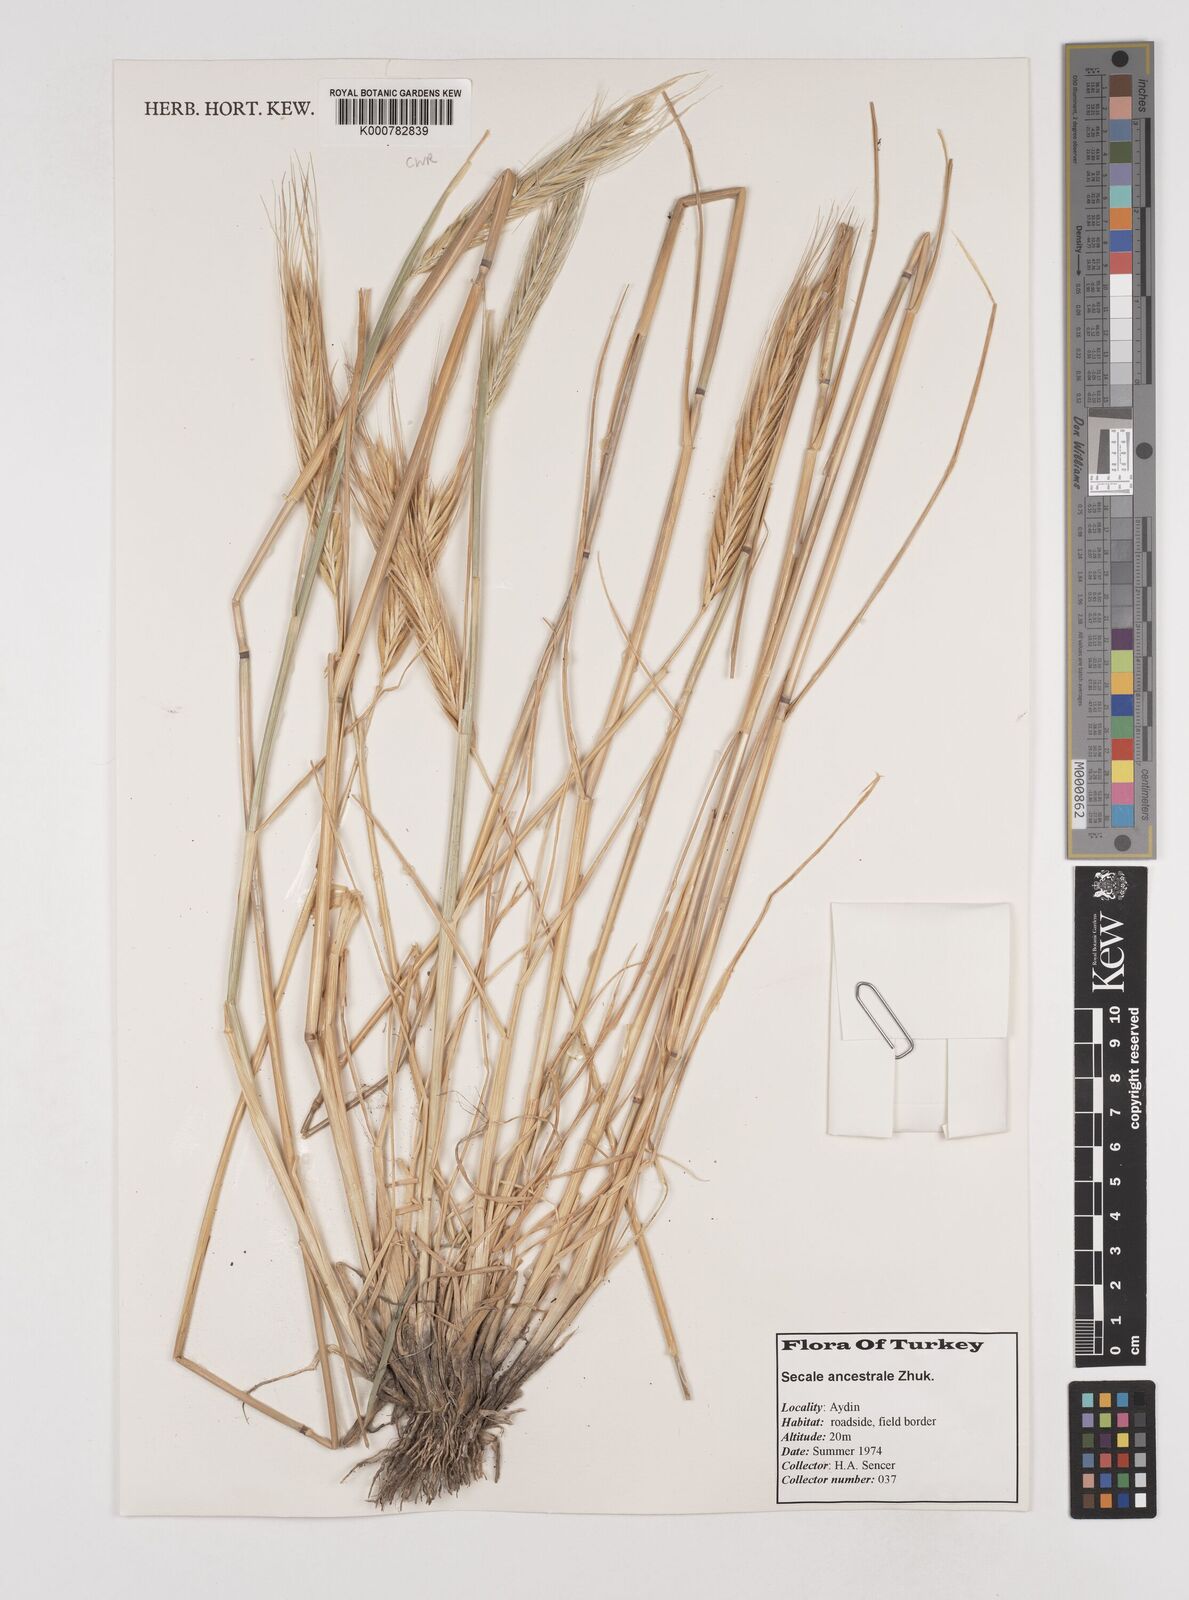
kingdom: Plantae
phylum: Tracheophyta
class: Liliopsida
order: Poales
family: Poaceae
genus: Secale
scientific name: Secale cereale
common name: Rye
